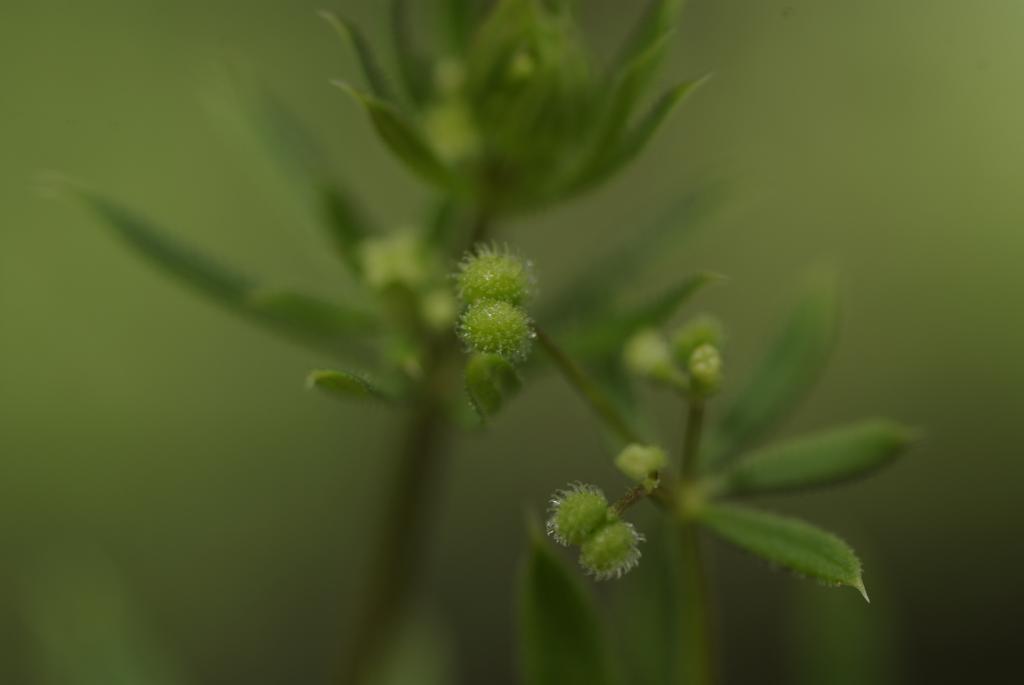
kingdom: Plantae
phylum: Tracheophyta
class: Magnoliopsida
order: Gentianales
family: Rubiaceae
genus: Galium
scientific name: Galium aparine
